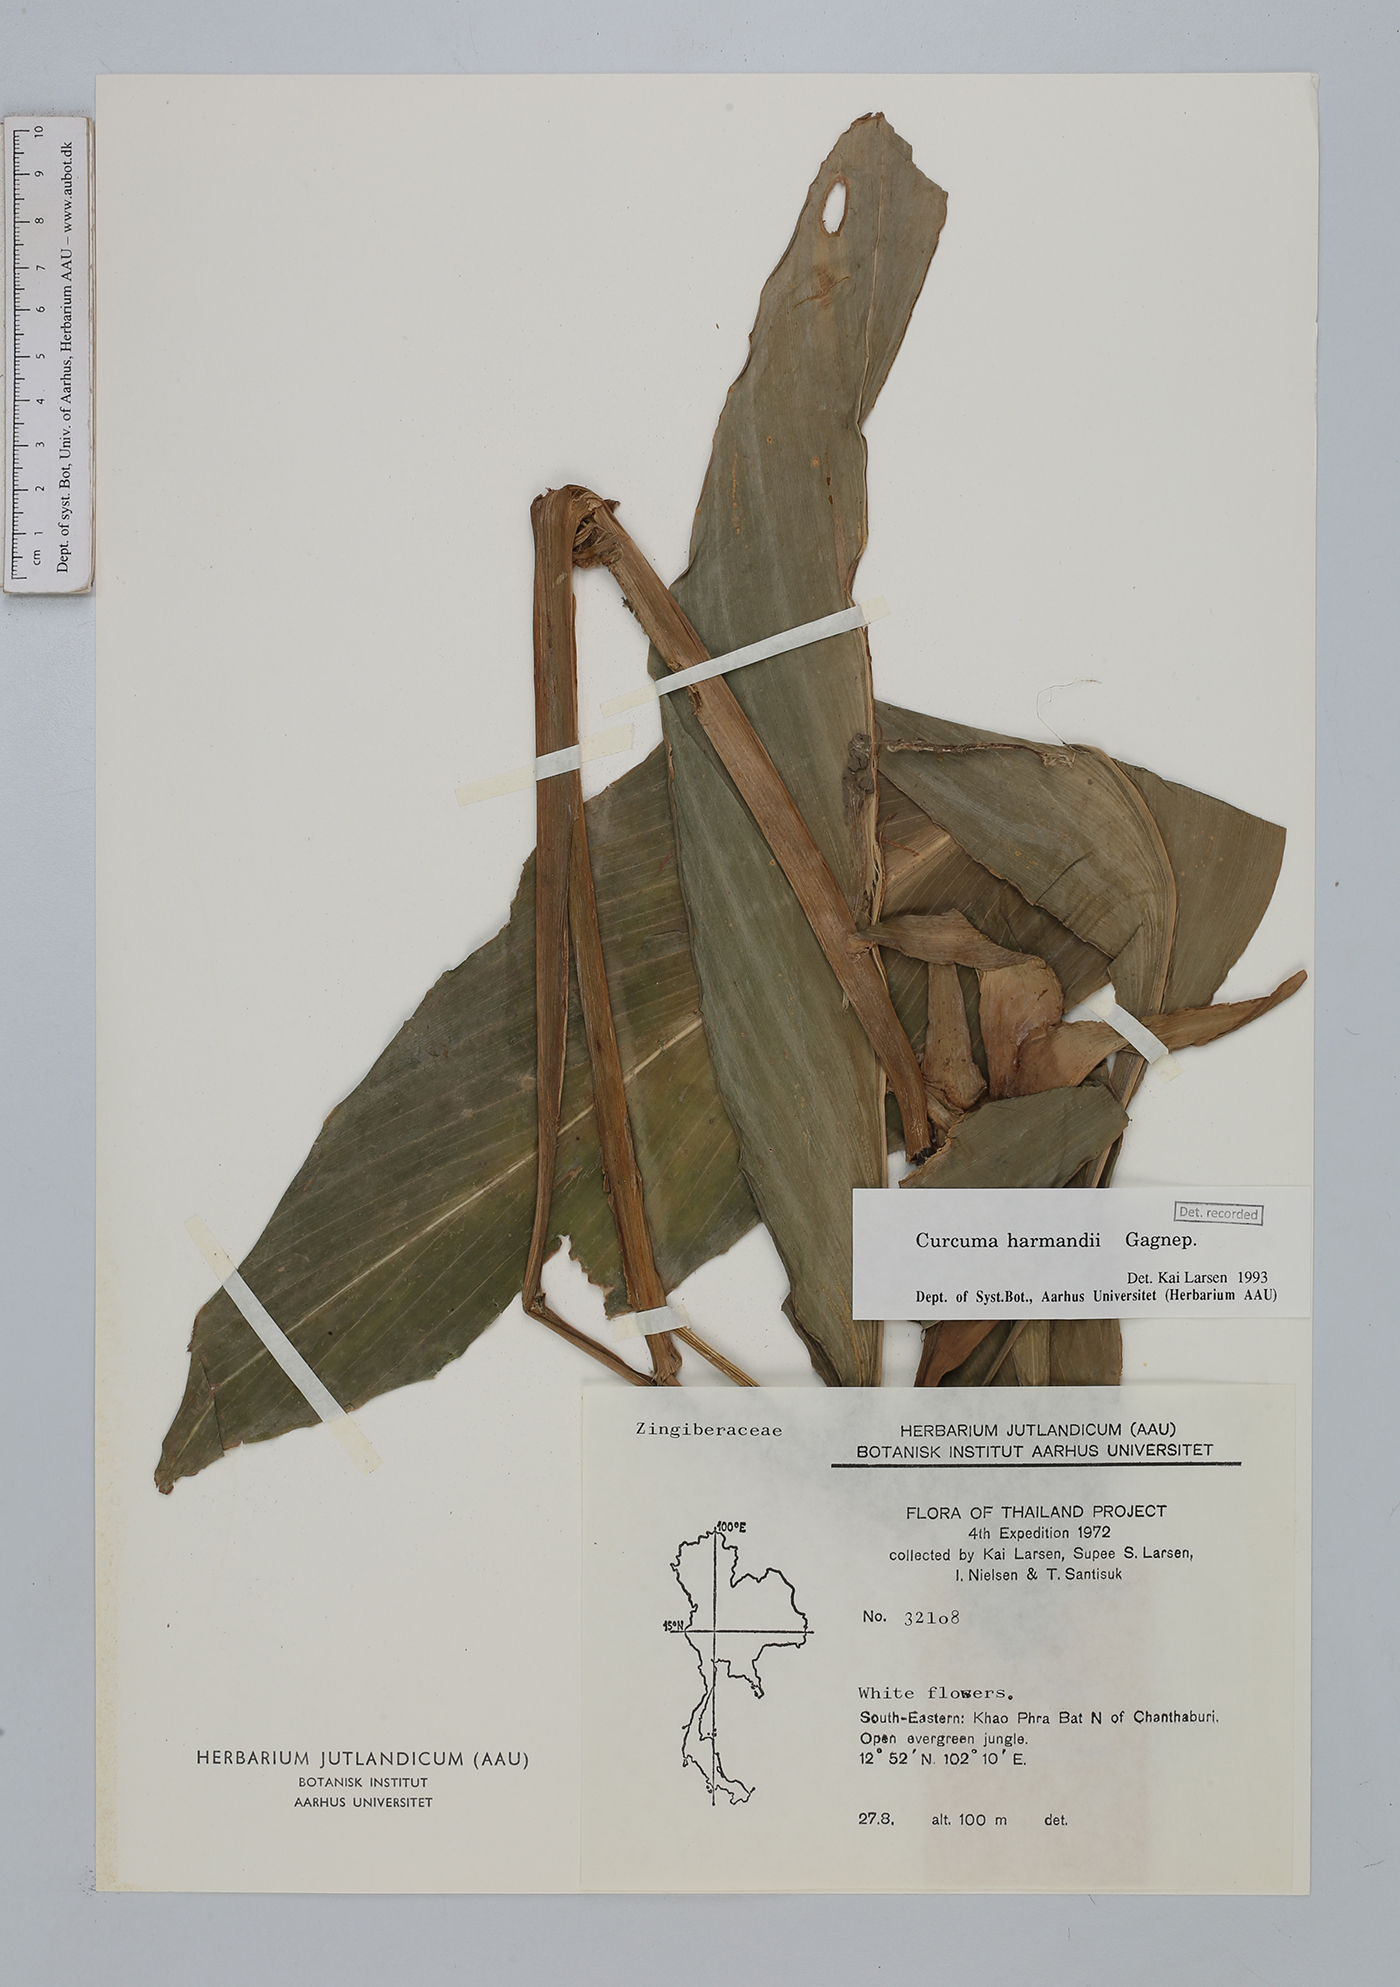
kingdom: Plantae
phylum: Tracheophyta
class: Liliopsida
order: Zingiberales
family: Zingiberaceae
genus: Curcuma
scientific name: Curcuma harmandii
